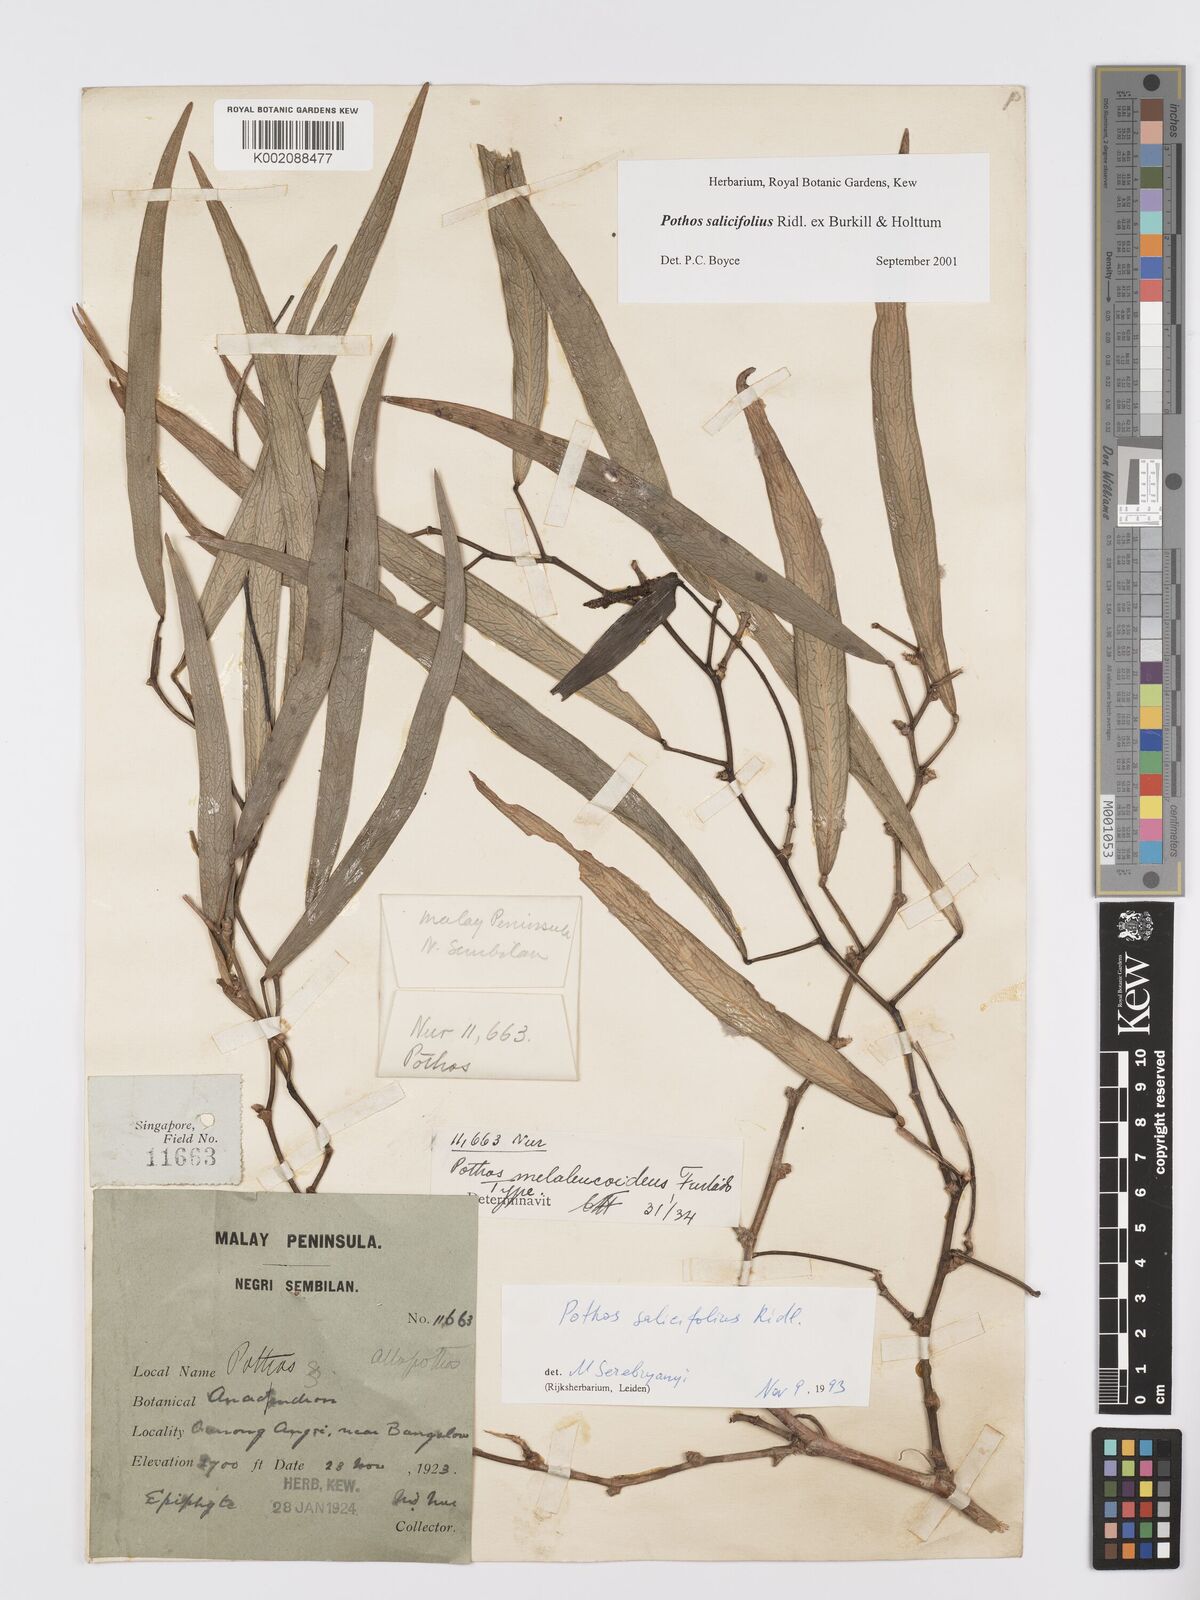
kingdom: Plantae
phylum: Tracheophyta
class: Liliopsida
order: Alismatales
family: Araceae
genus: Pothos
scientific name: Pothos salicifolius
